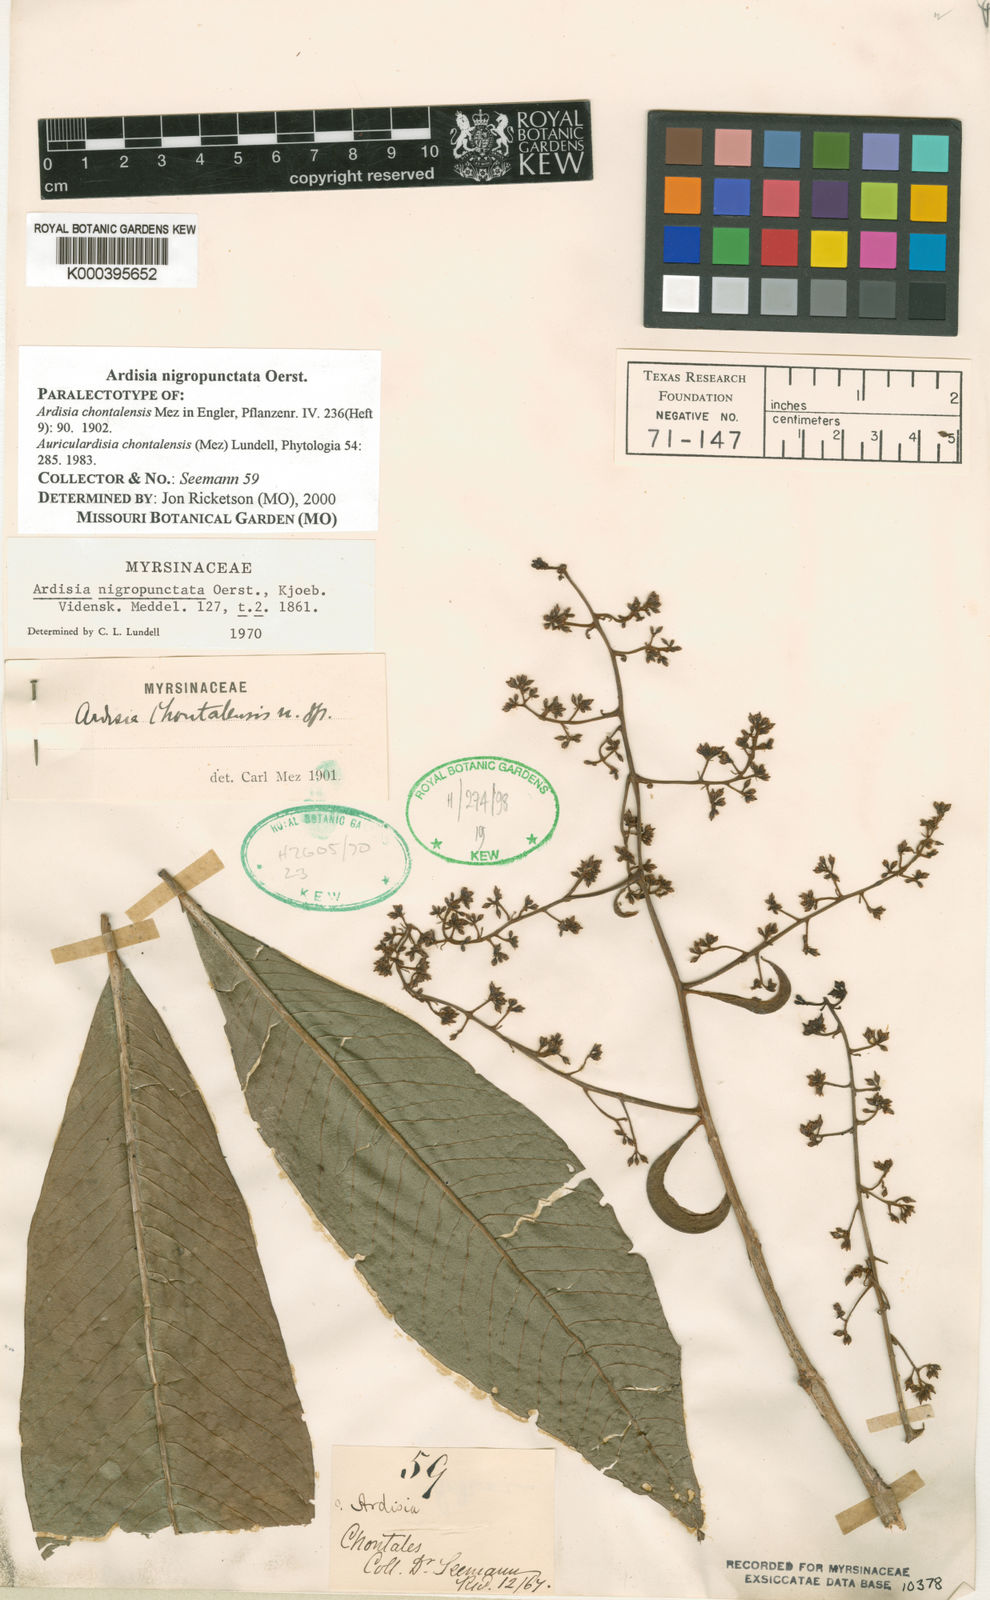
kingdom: Plantae
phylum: Tracheophyta
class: Magnoliopsida
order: Ericales
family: Primulaceae
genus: Ardisia
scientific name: Ardisia nigropunctata
